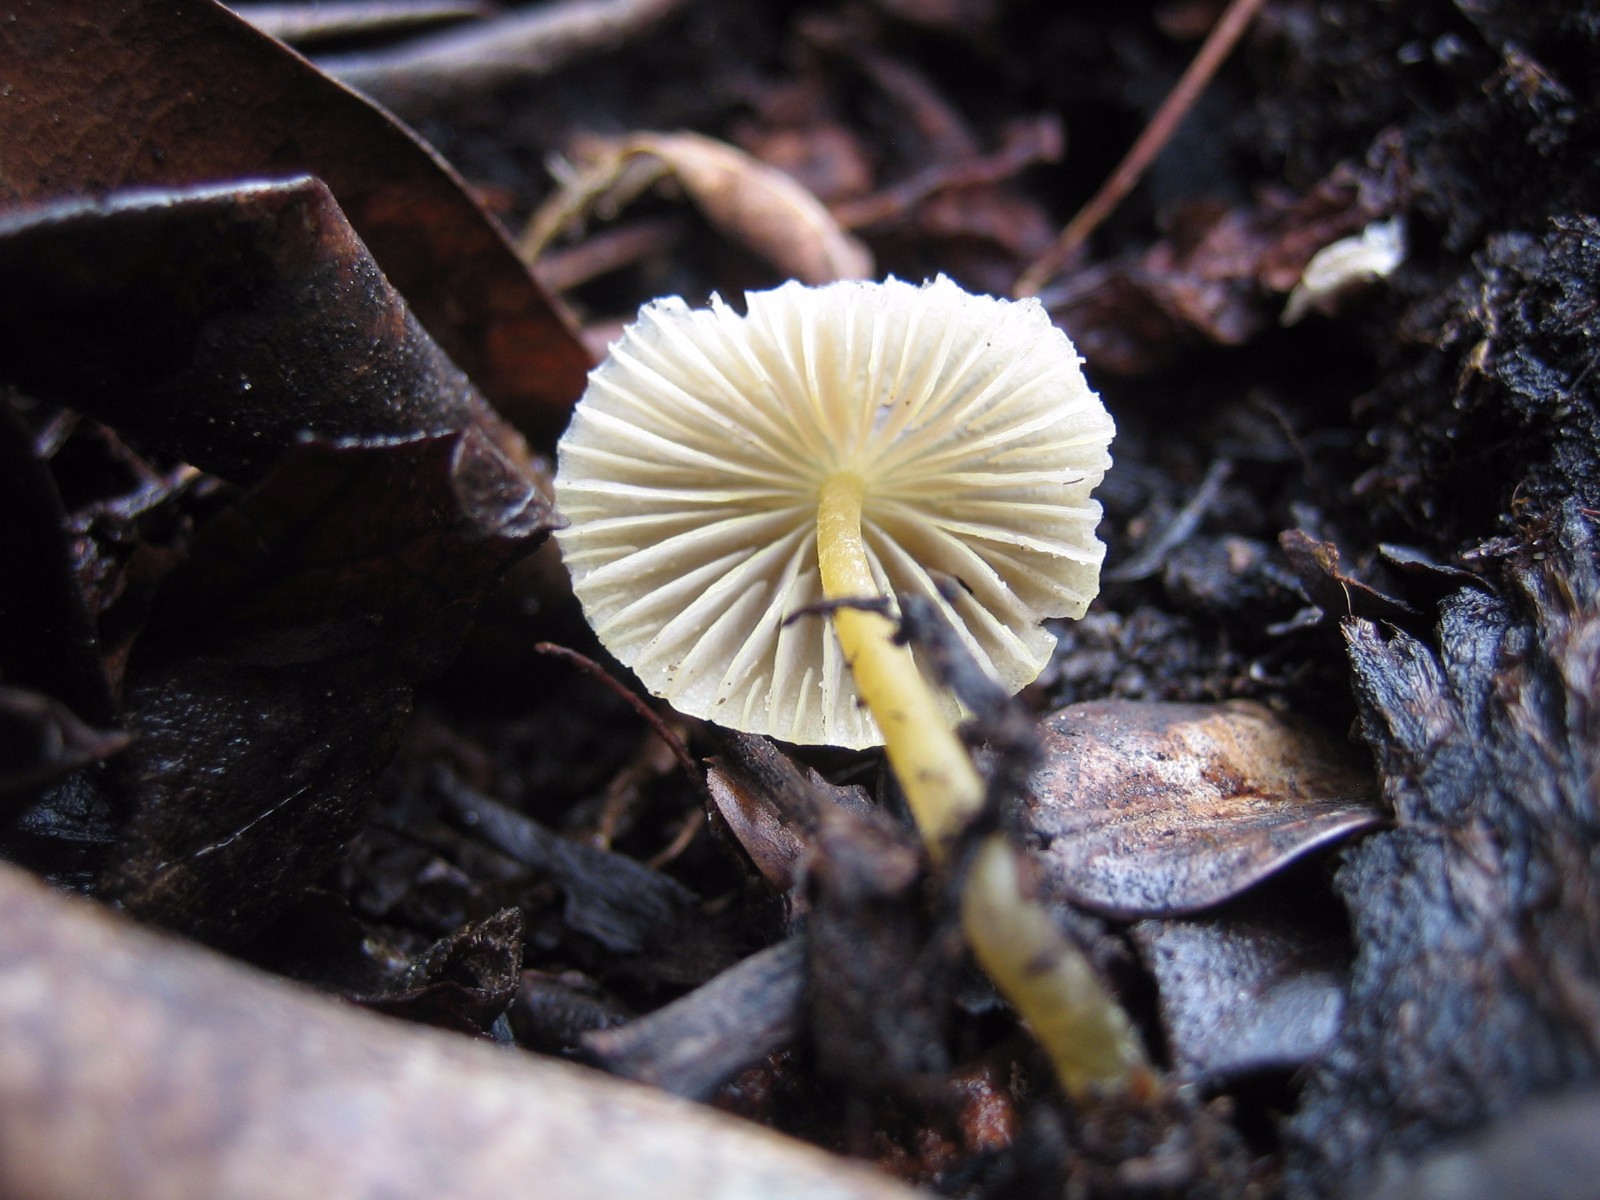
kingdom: Fungi
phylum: Basidiomycota
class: Agaricomycetes
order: Agaricales
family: Mycenaceae
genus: Mycena
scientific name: Mycena
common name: huesvamp
